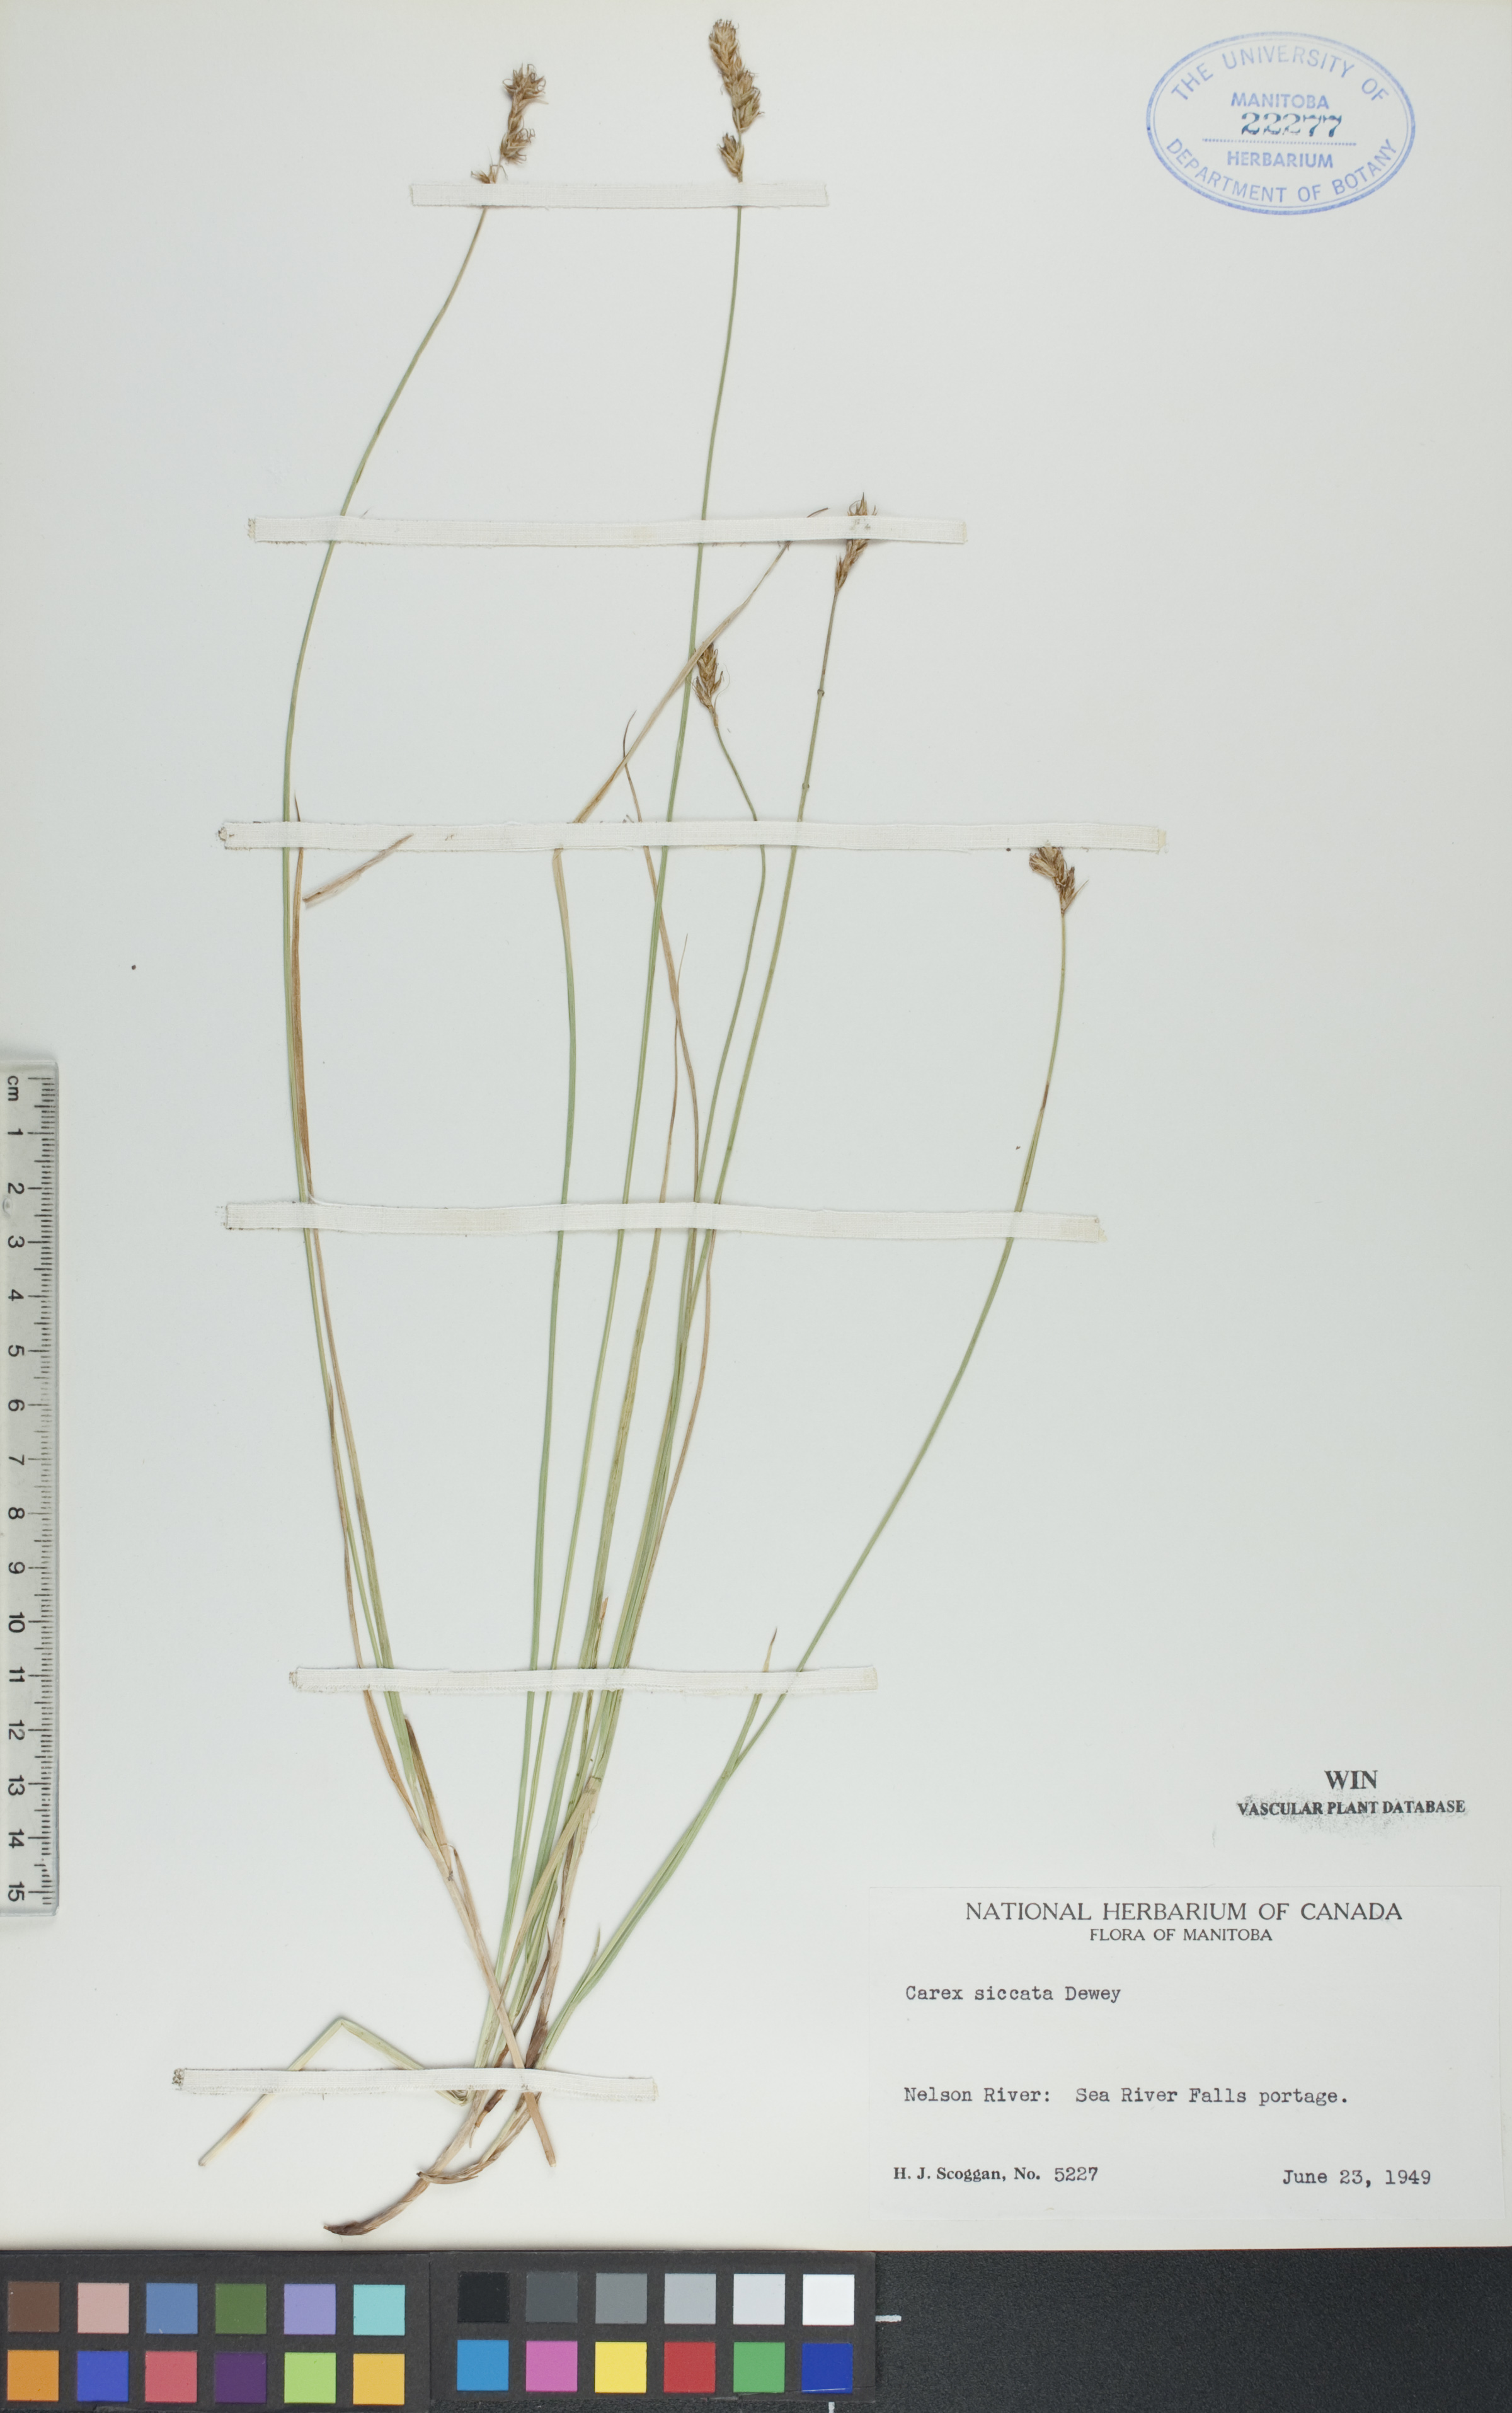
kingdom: Plantae
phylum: Tracheophyta
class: Liliopsida
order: Poales
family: Cyperaceae
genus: Carex
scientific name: Carex siccata
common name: Dry sedge
